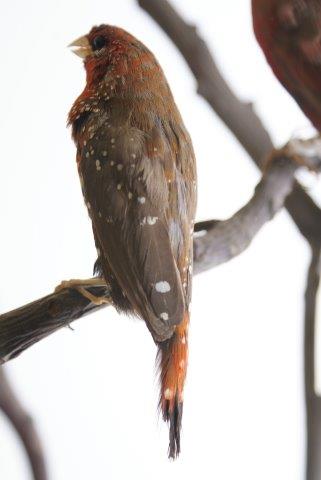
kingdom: Animalia
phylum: Chordata
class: Aves
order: Passeriformes
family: Estrildidae
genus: Amandava
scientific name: Amandava amandava
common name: Tijgervink
